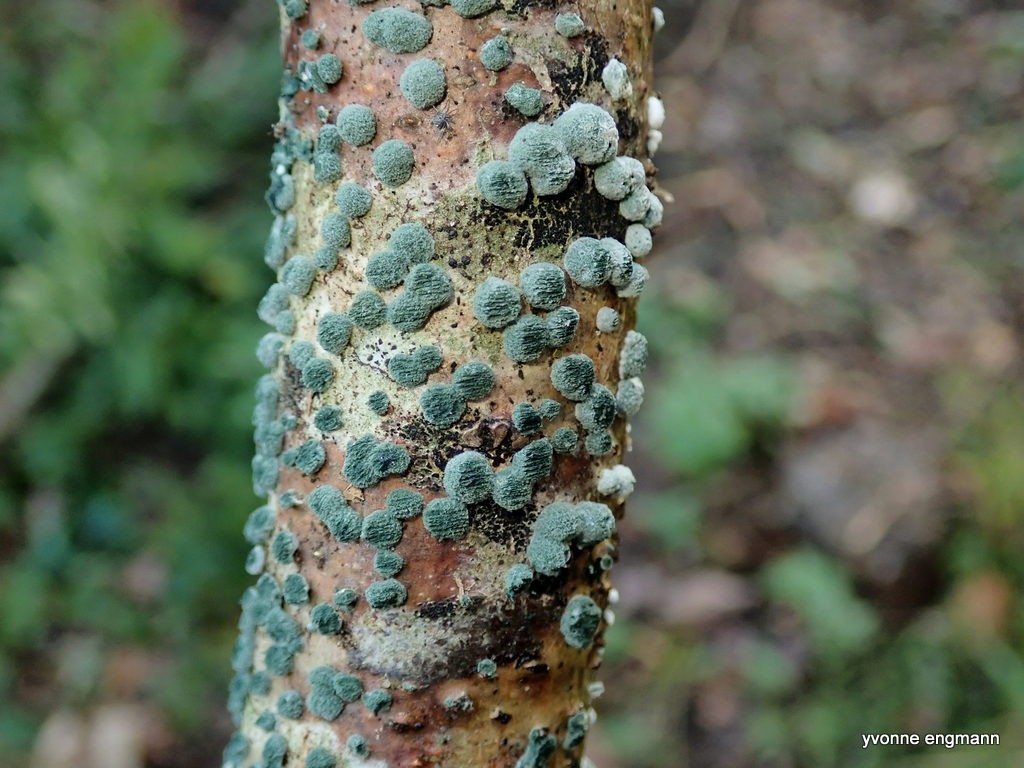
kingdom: Fungi
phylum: Ascomycota
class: Sordariomycetes
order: Hypocreales
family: Hypocreaceae
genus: Trichoderma
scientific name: Trichoderma
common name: kødkerne
